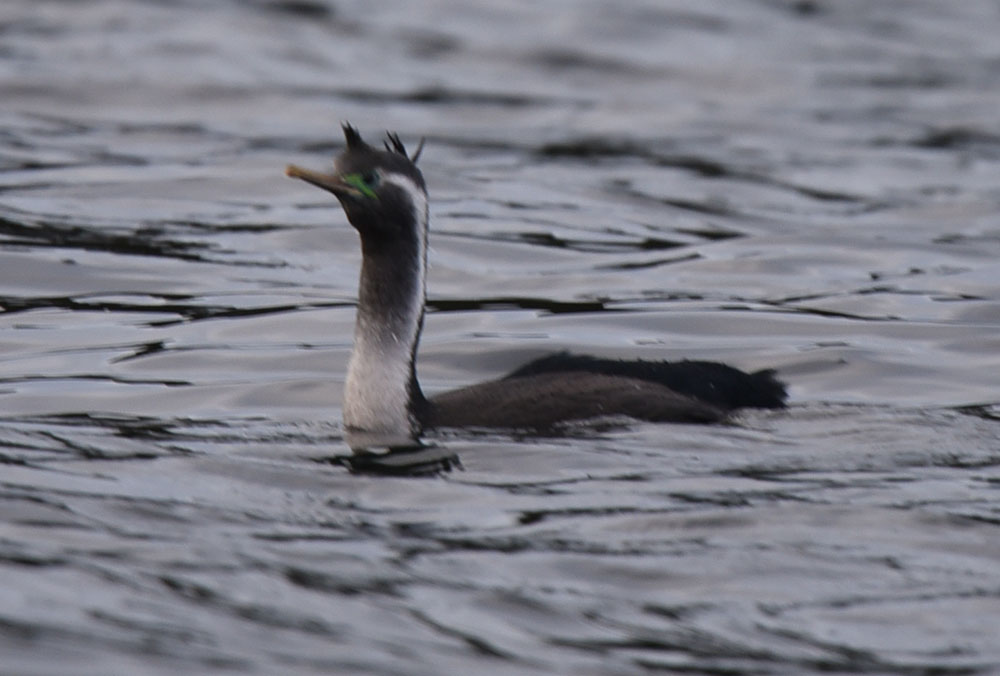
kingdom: Animalia
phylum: Chordata
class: Aves
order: Suliformes
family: Phalacrocoracidae
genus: Phalacrocorax
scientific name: Phalacrocorax punctatus
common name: Spotted shag
